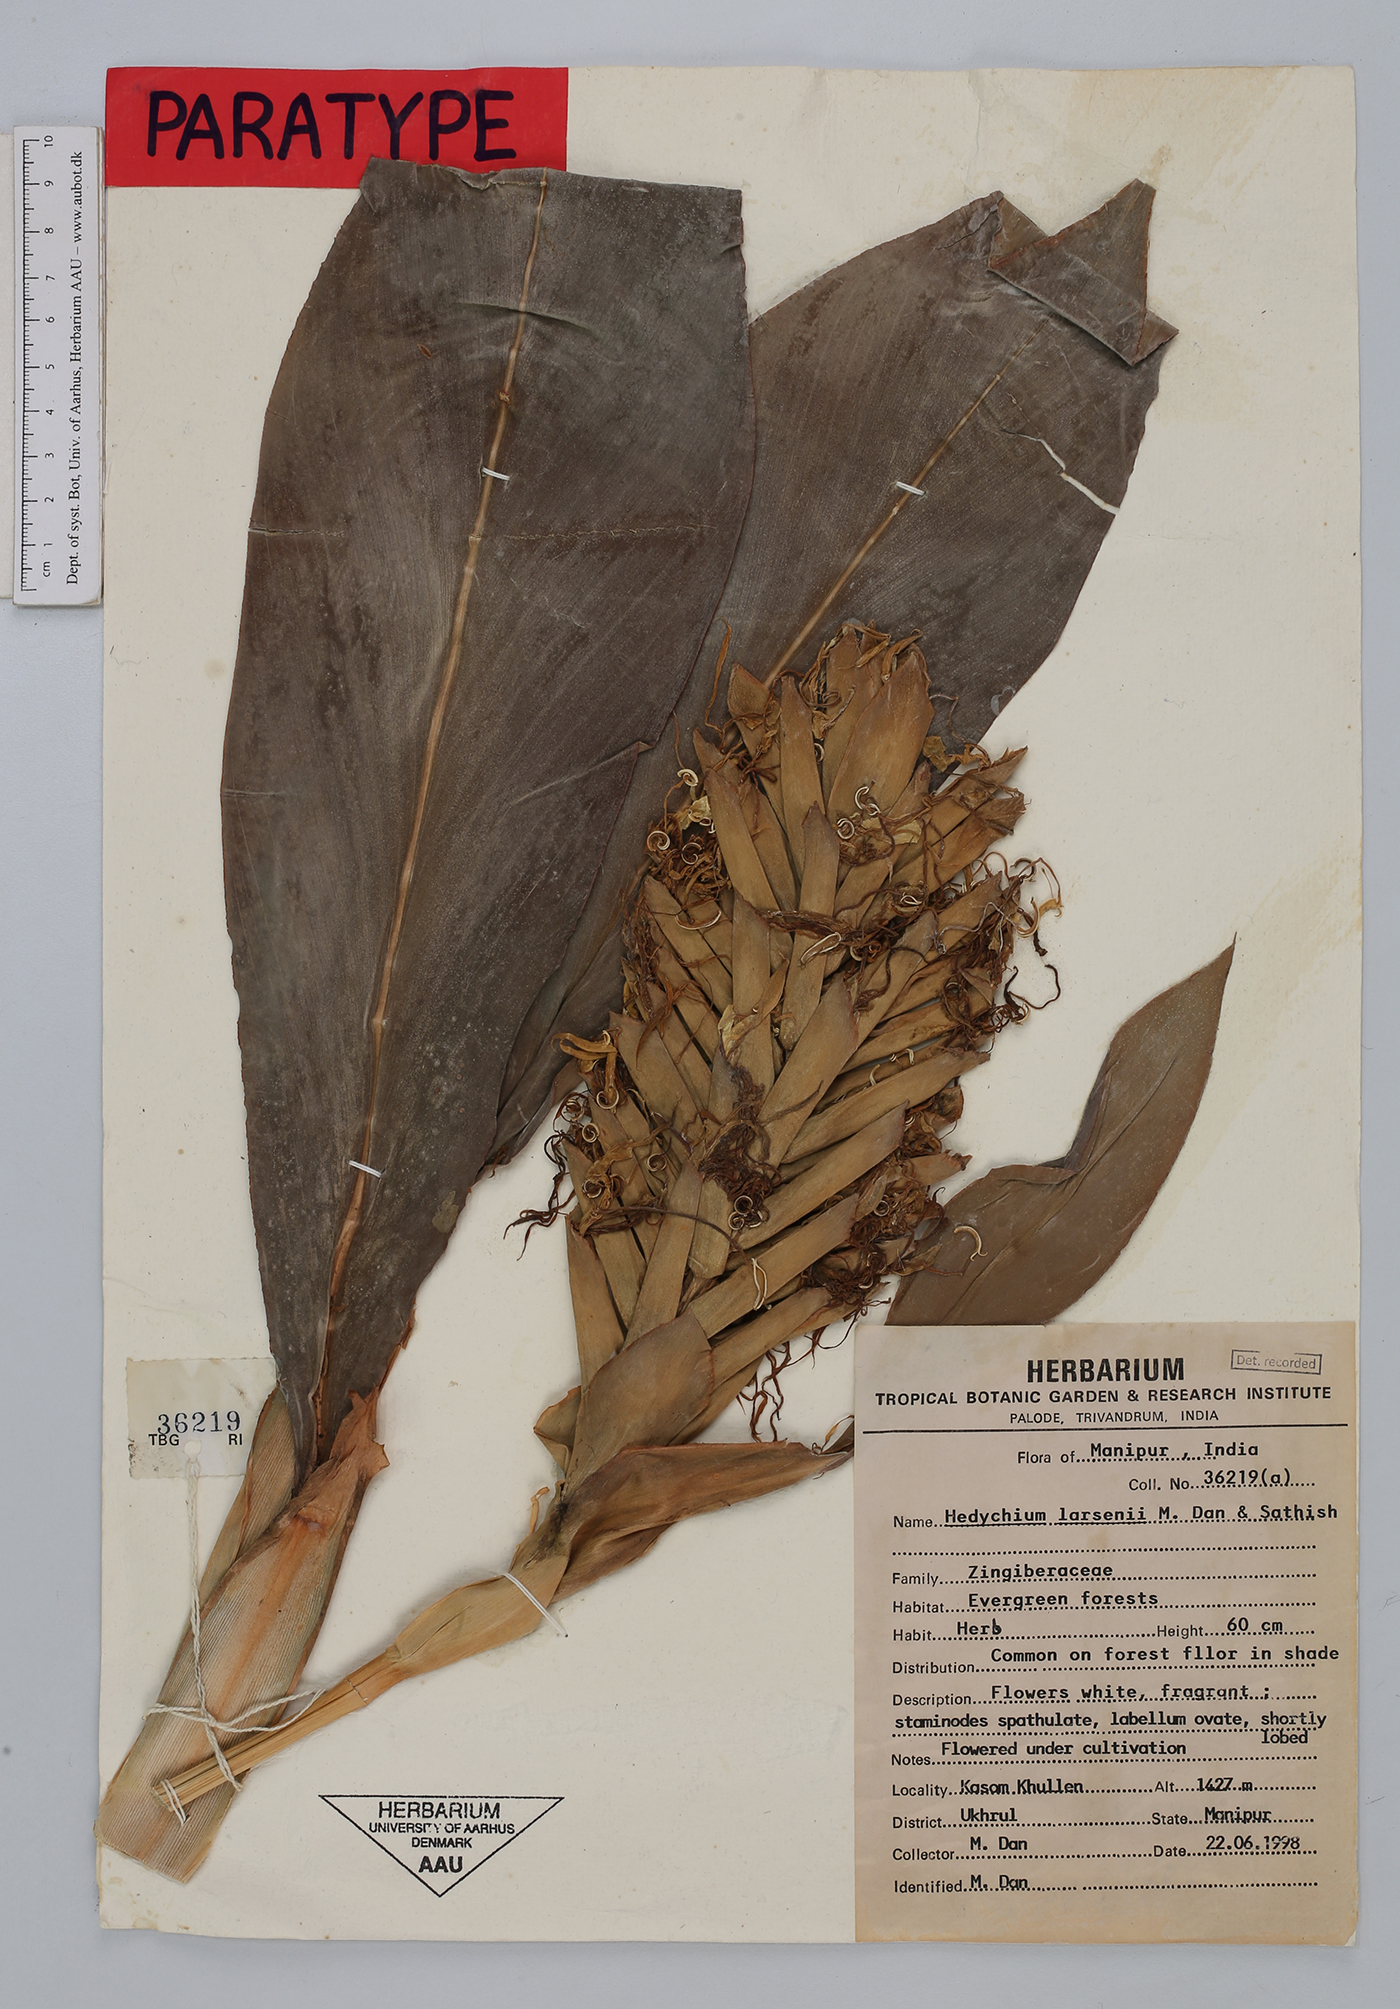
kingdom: Plantae
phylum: Tracheophyta
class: Liliopsida
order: Zingiberales
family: Zingiberaceae
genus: Hedychium
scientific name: Hedychium larsenii
